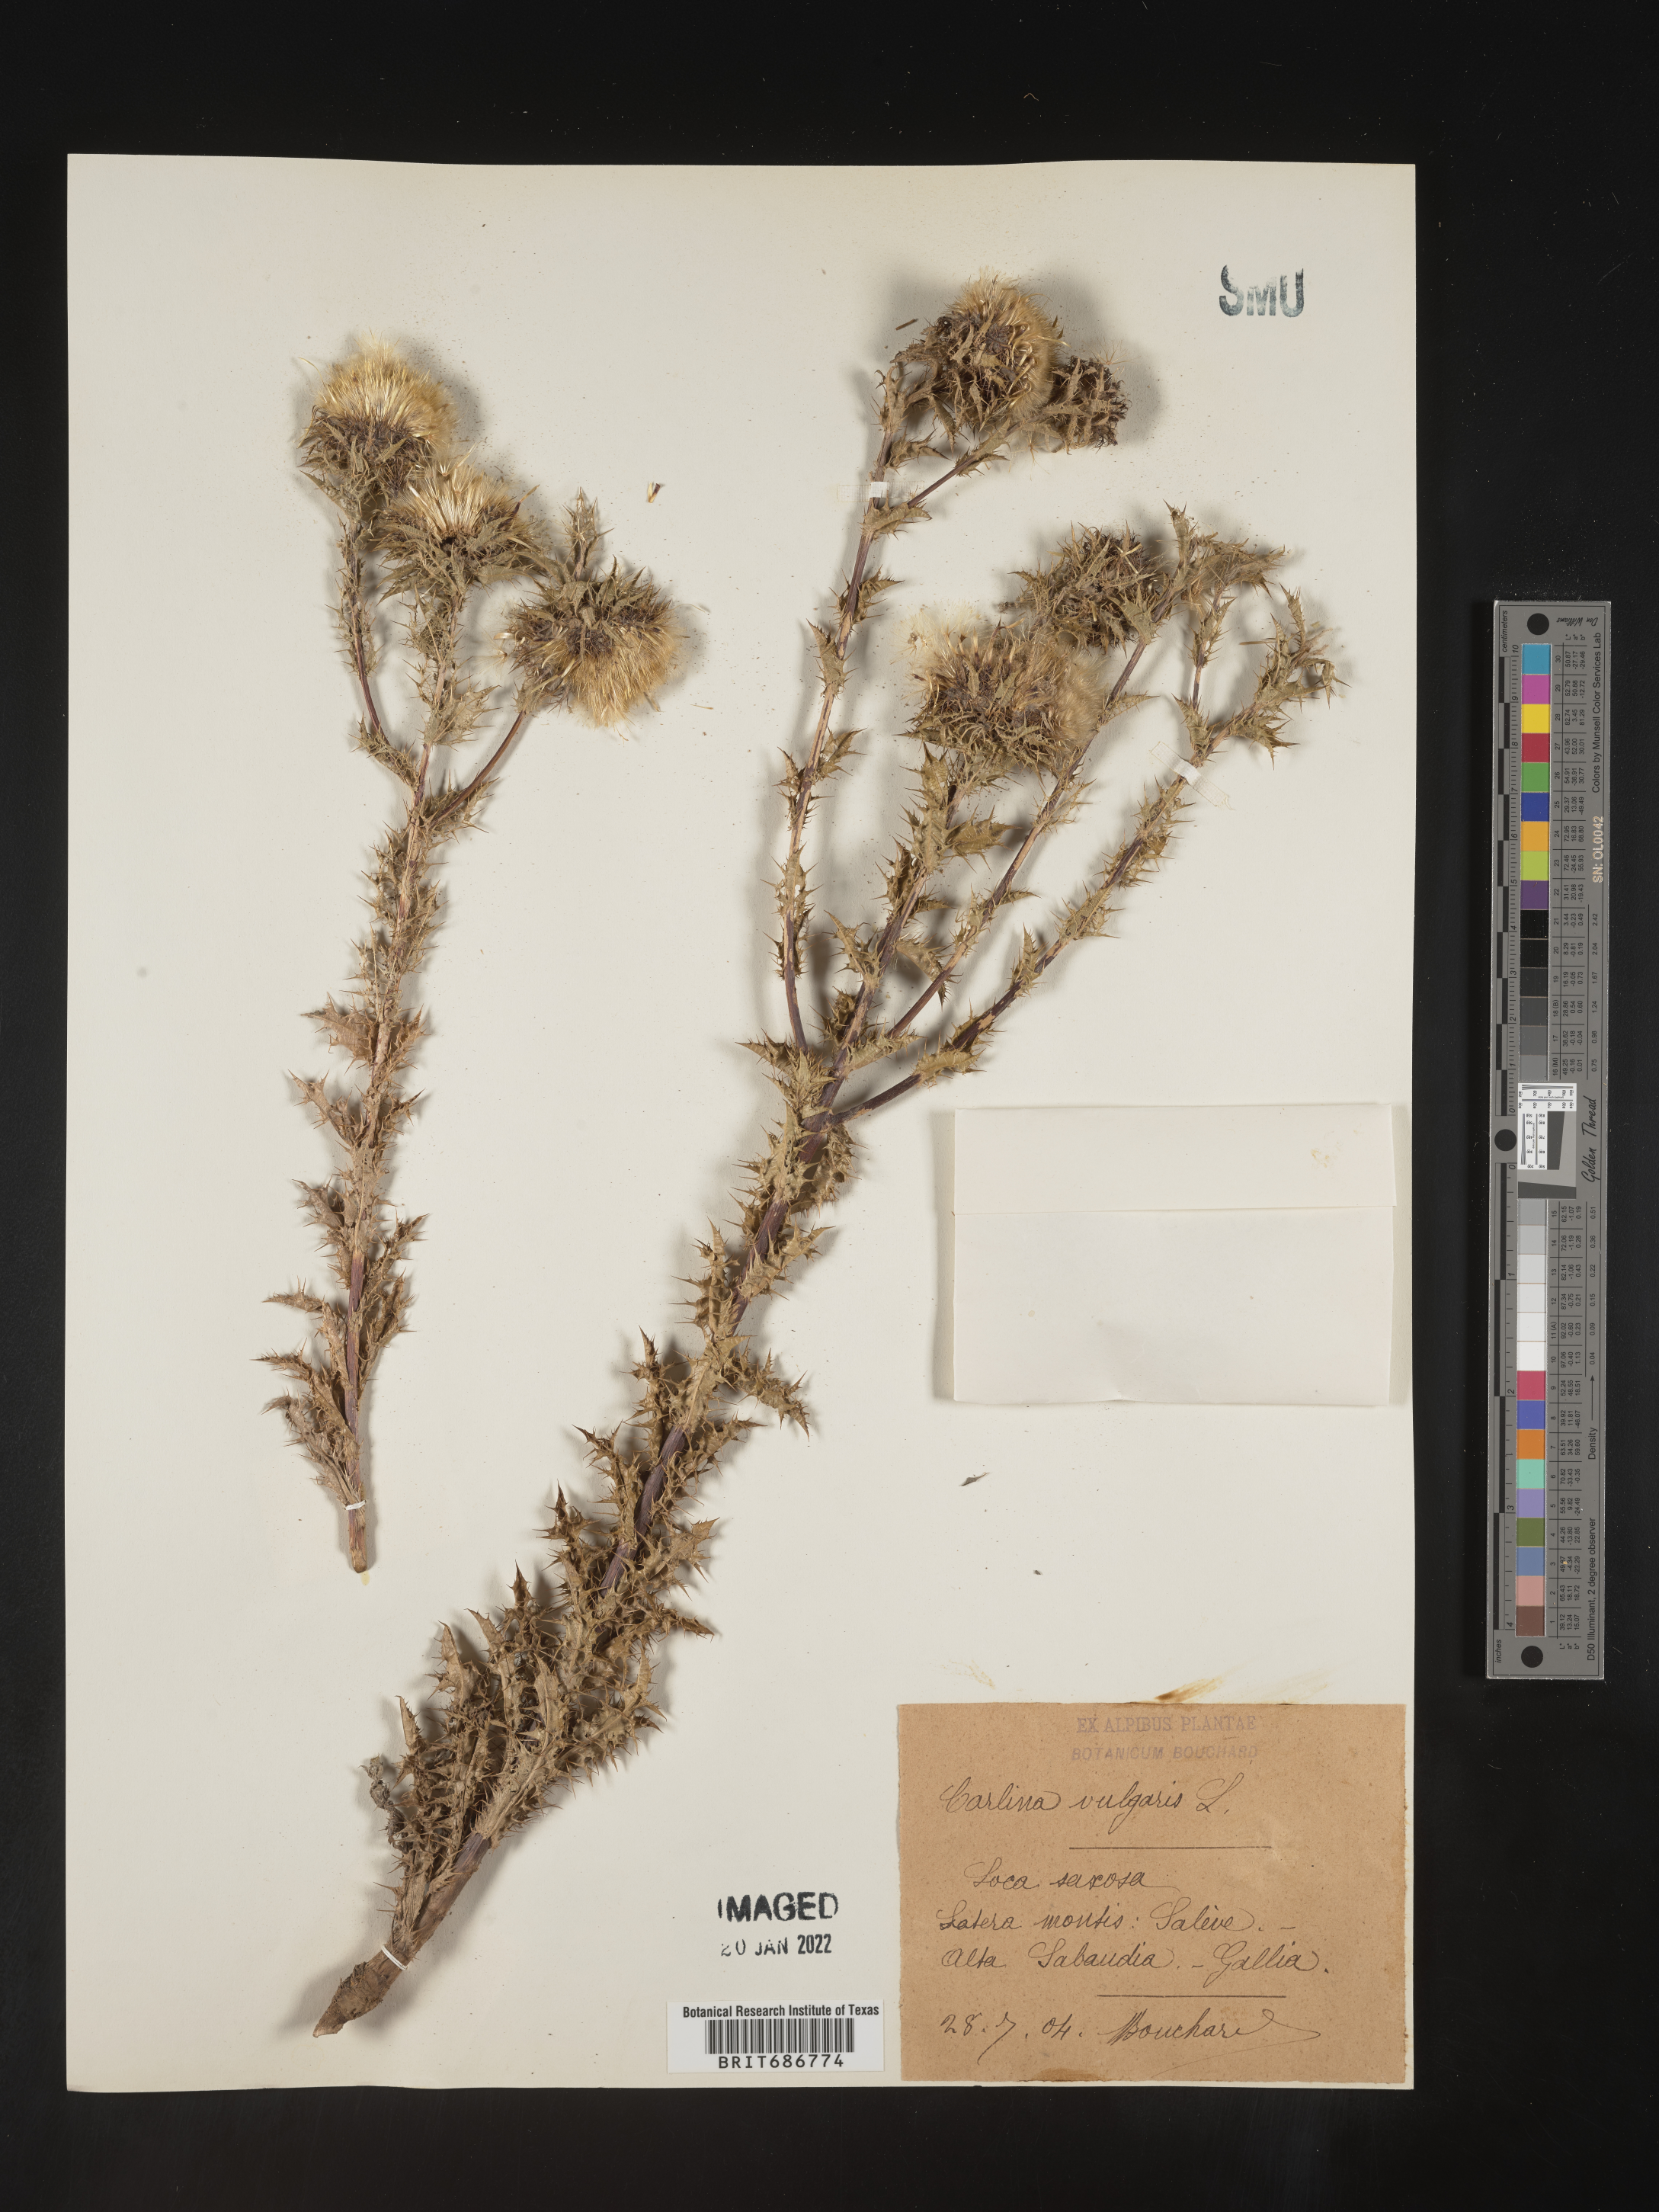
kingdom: Plantae
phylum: Tracheophyta
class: Magnoliopsida
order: Asterales
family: Asteraceae
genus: Carlina
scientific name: Carlina
